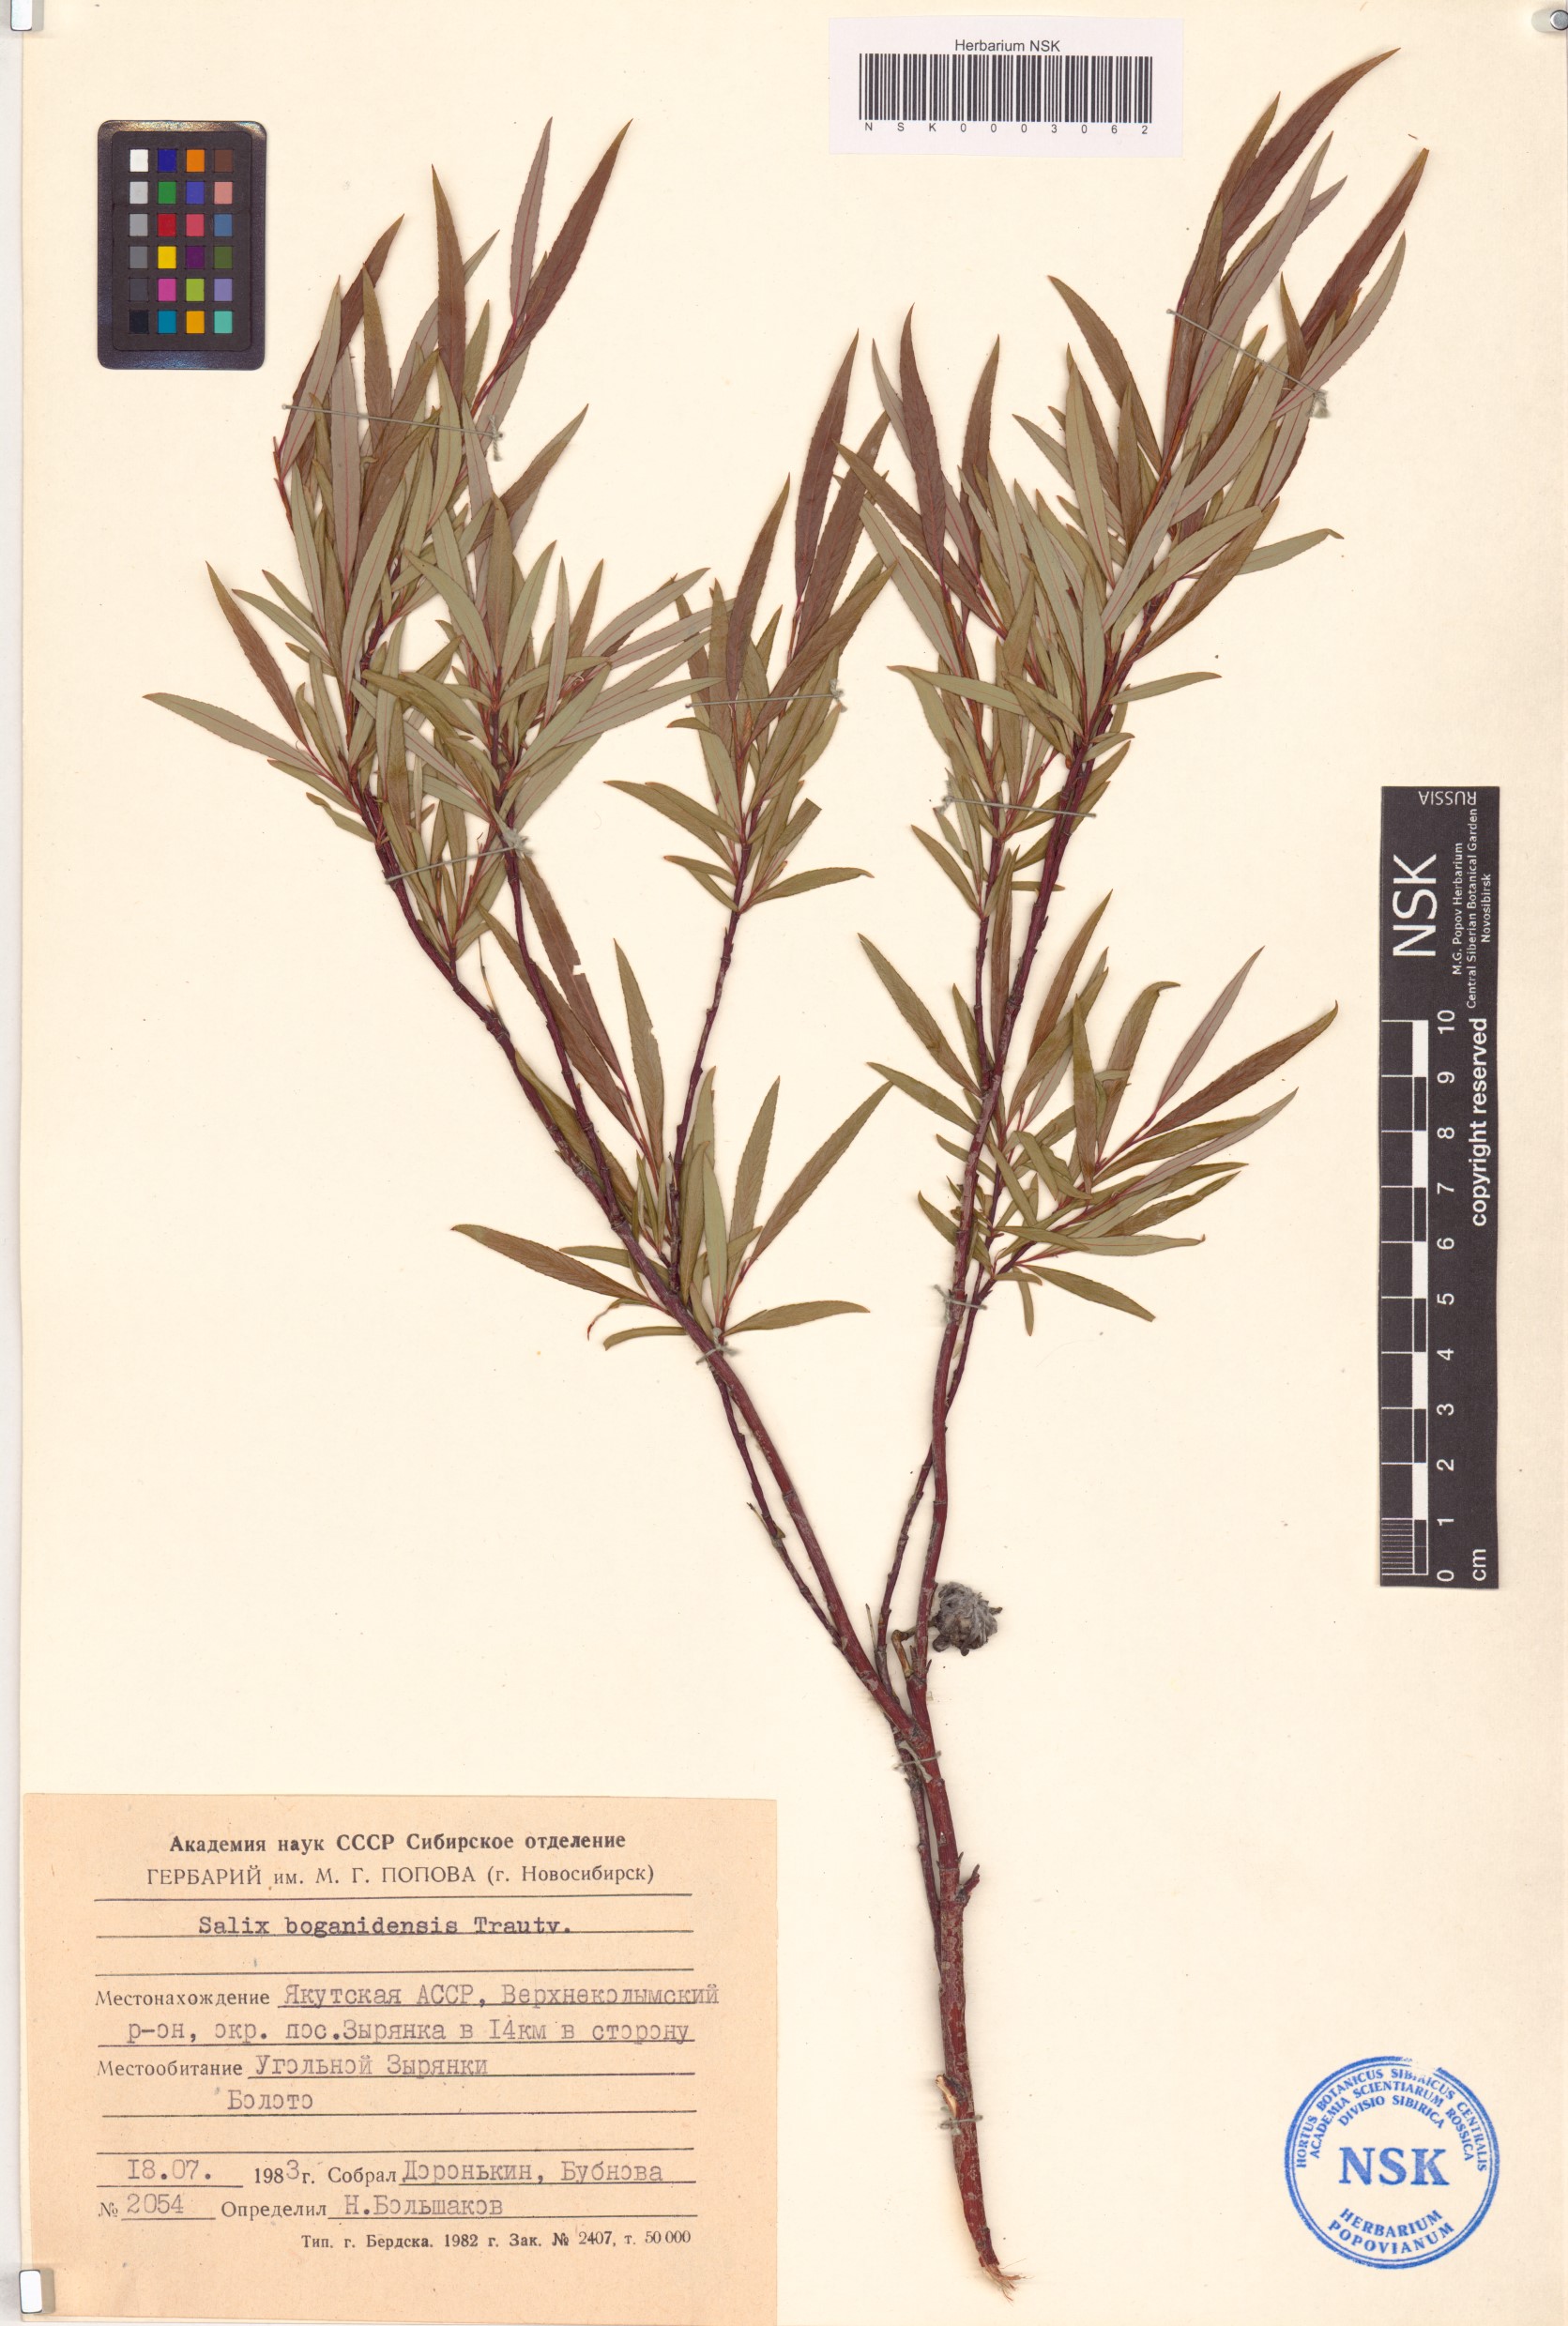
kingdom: Plantae
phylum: Tracheophyta
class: Magnoliopsida
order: Malpighiales
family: Salicaceae
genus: Salix
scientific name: Salix boganidensis
